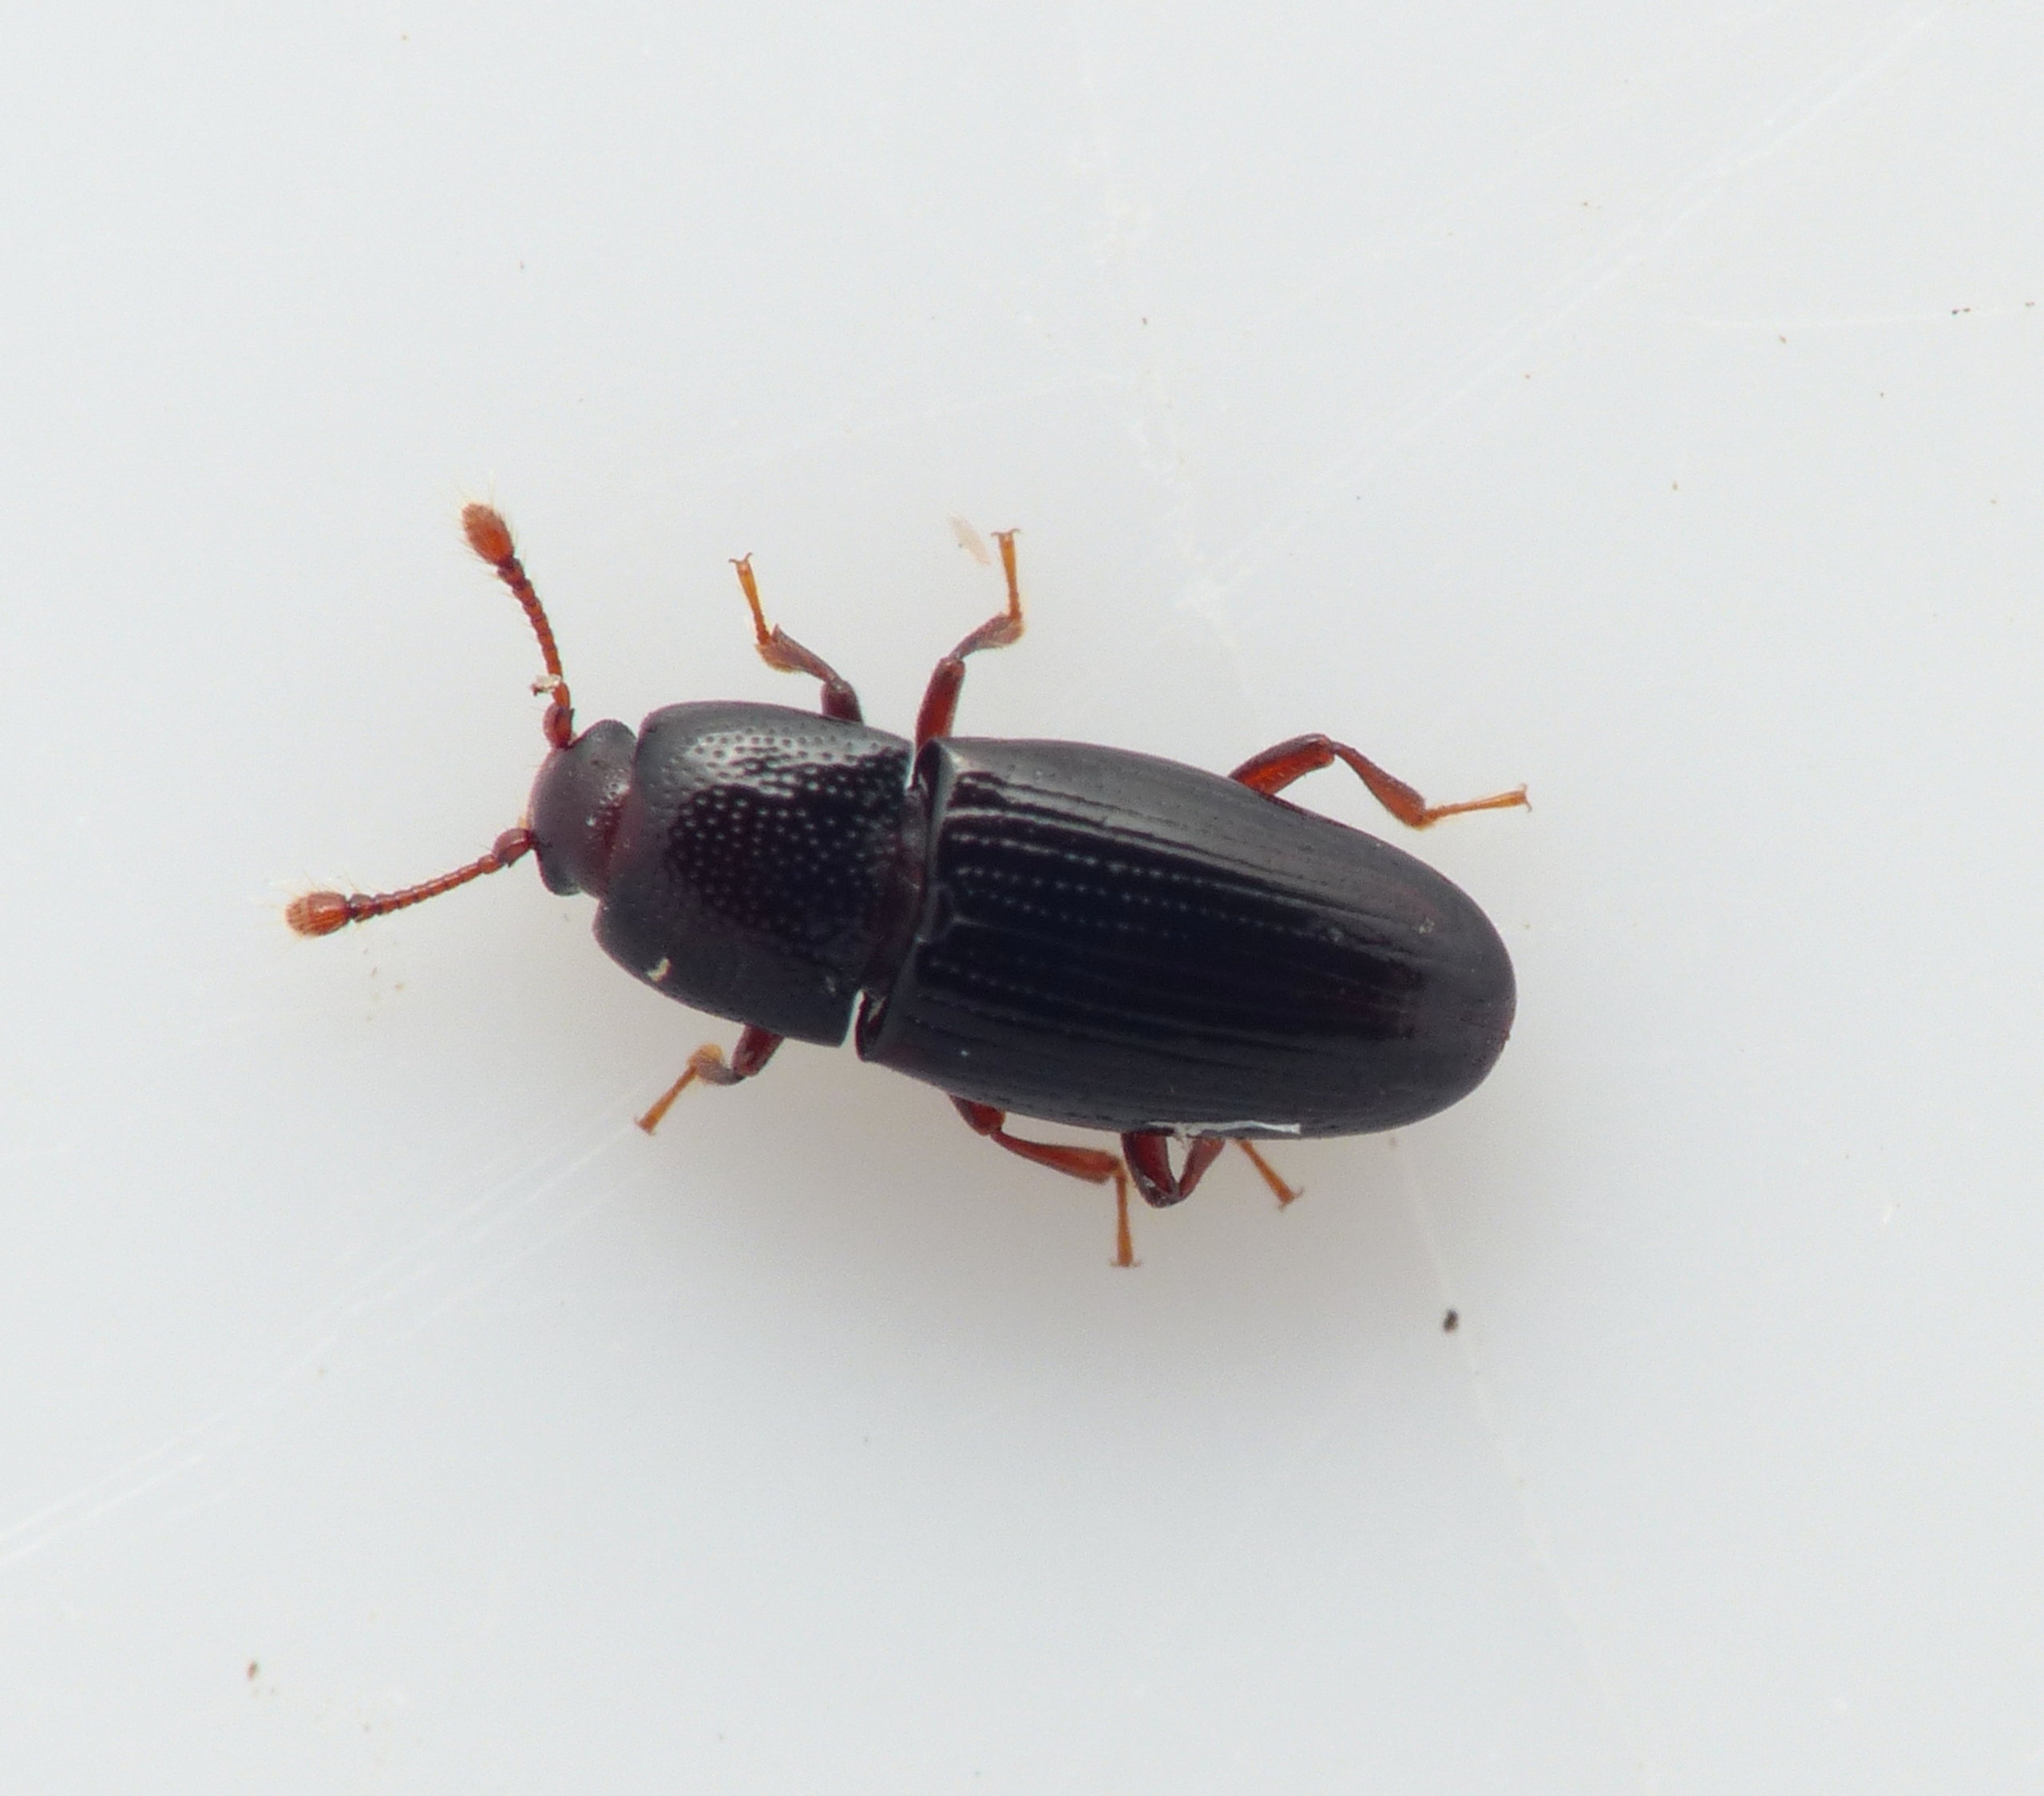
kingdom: Animalia
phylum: Arthropoda
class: Insecta
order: Coleoptera
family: Cerylonidae
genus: Cerylon
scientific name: Cerylon histeroides
